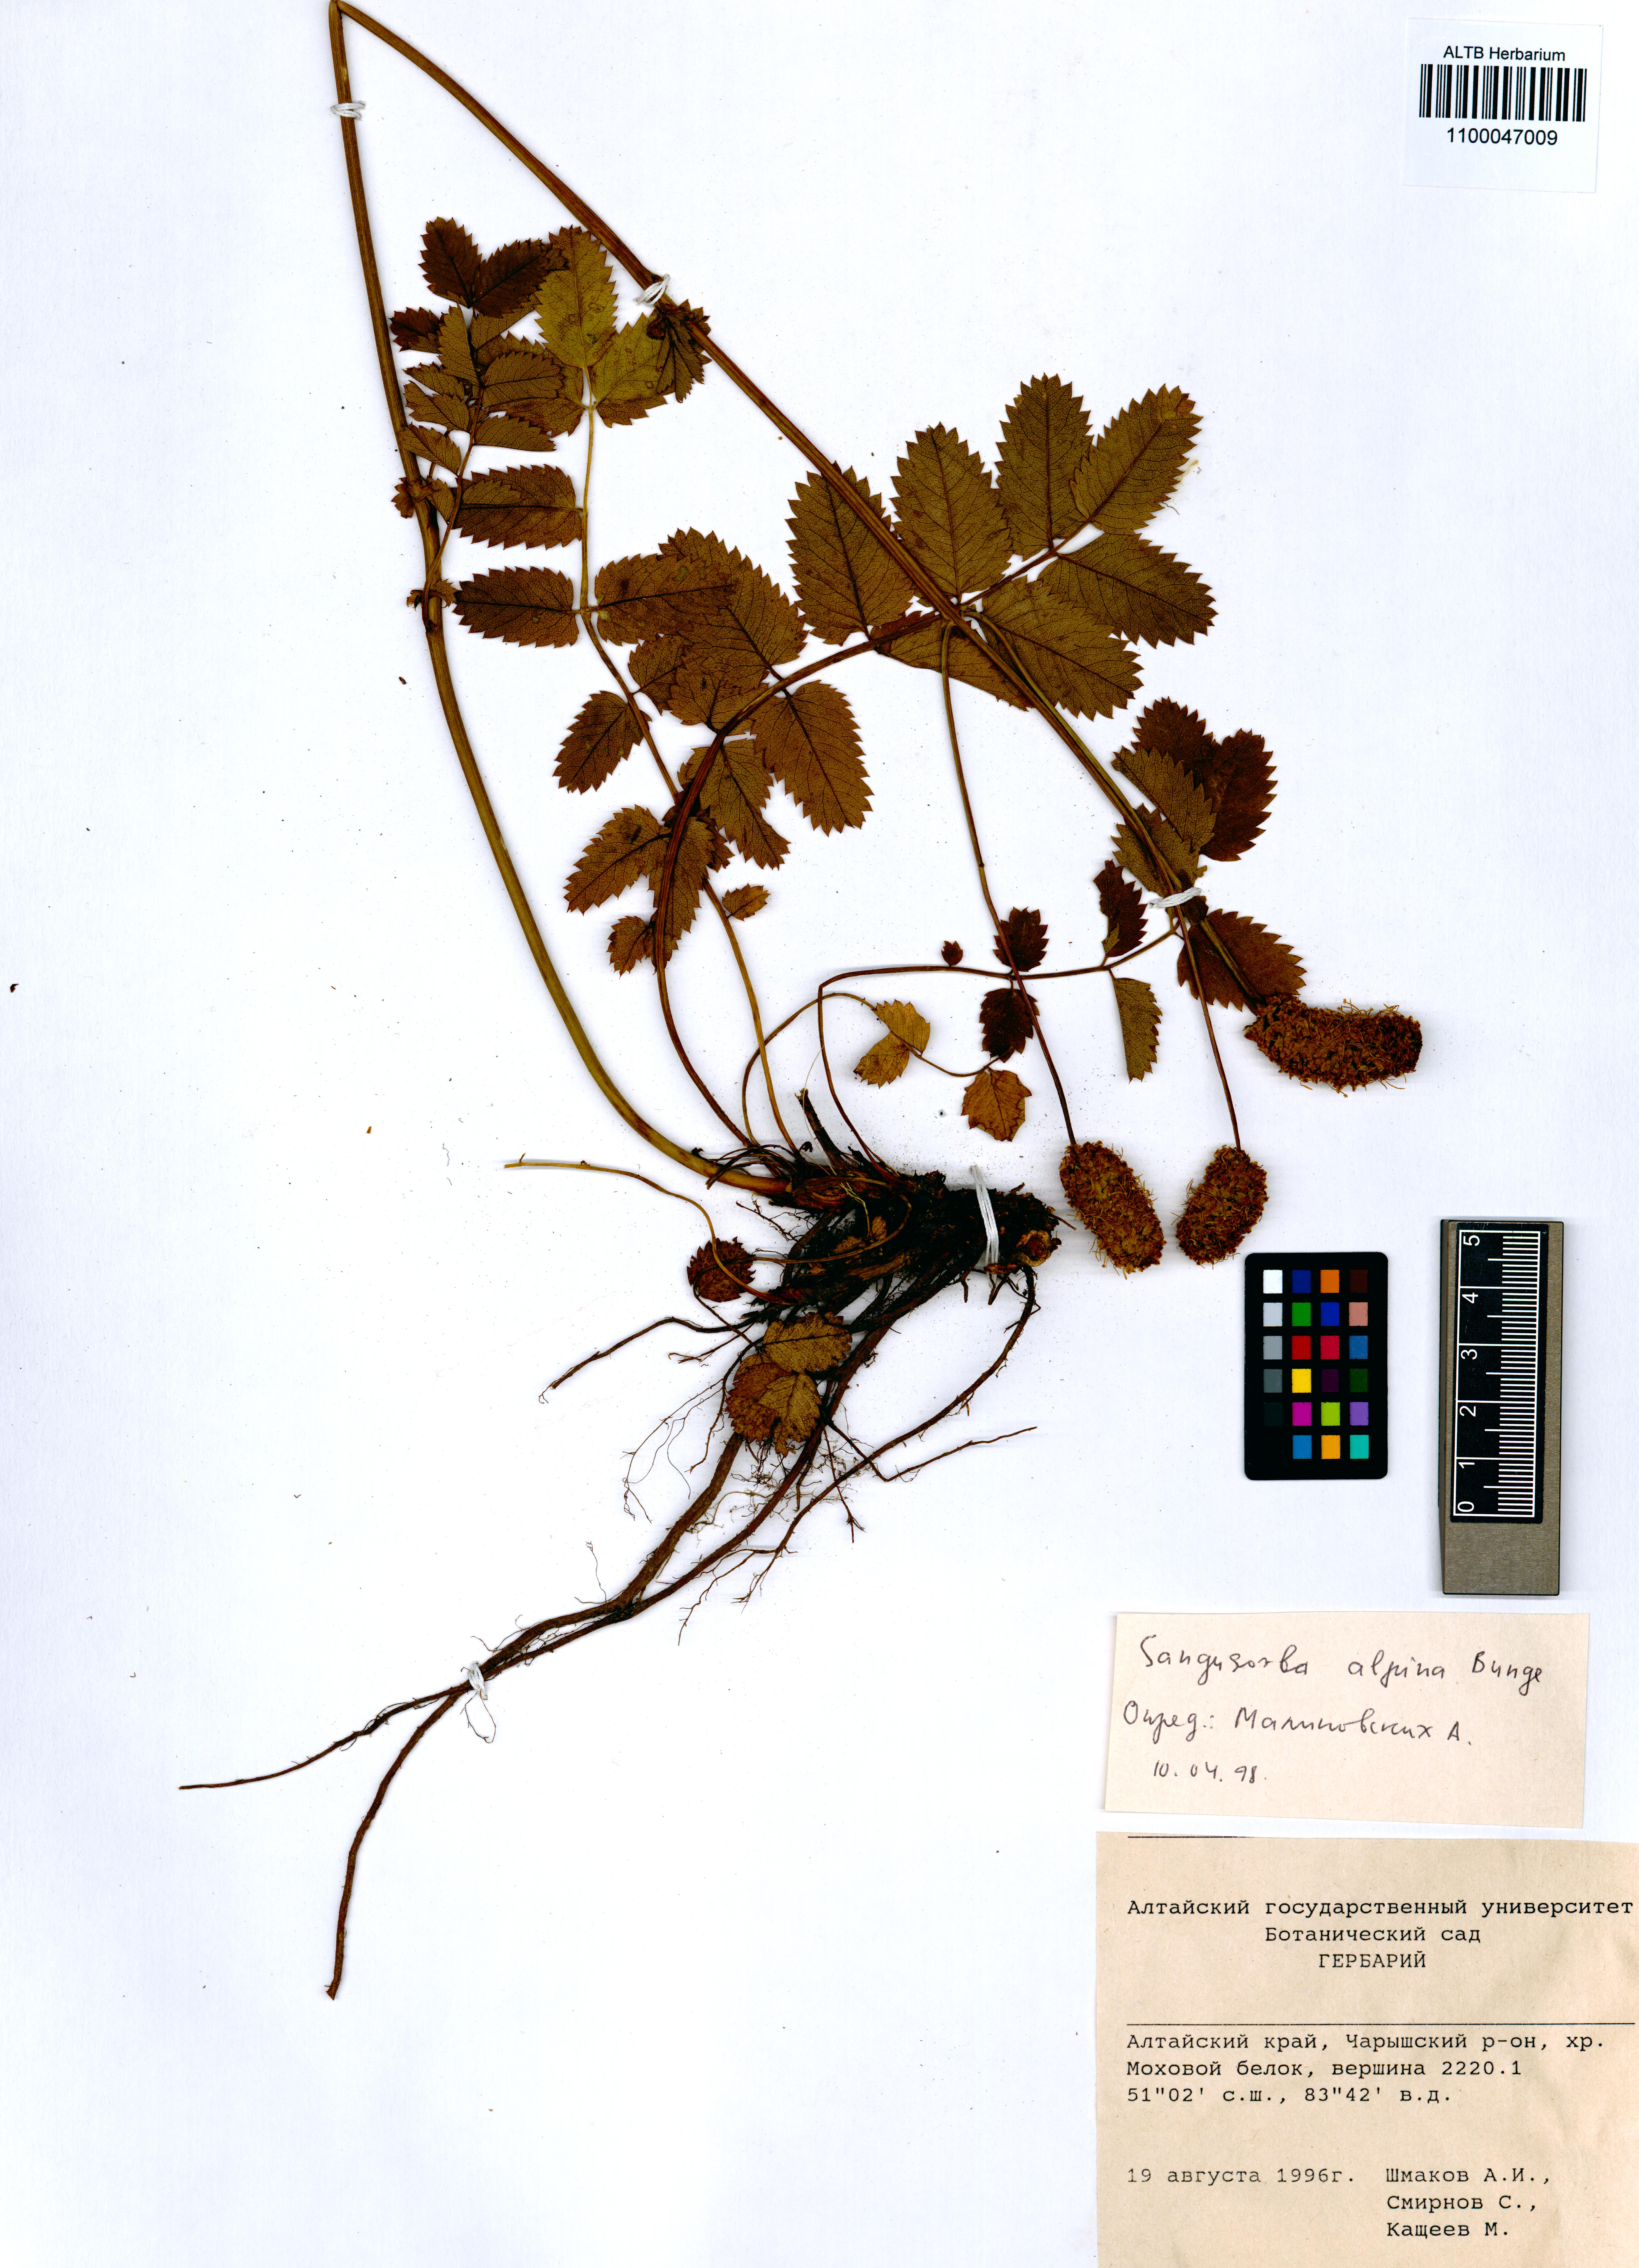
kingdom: Plantae
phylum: Tracheophyta
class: Magnoliopsida
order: Rosales
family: Rosaceae
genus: Sanguisorba
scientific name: Sanguisorba alpina
